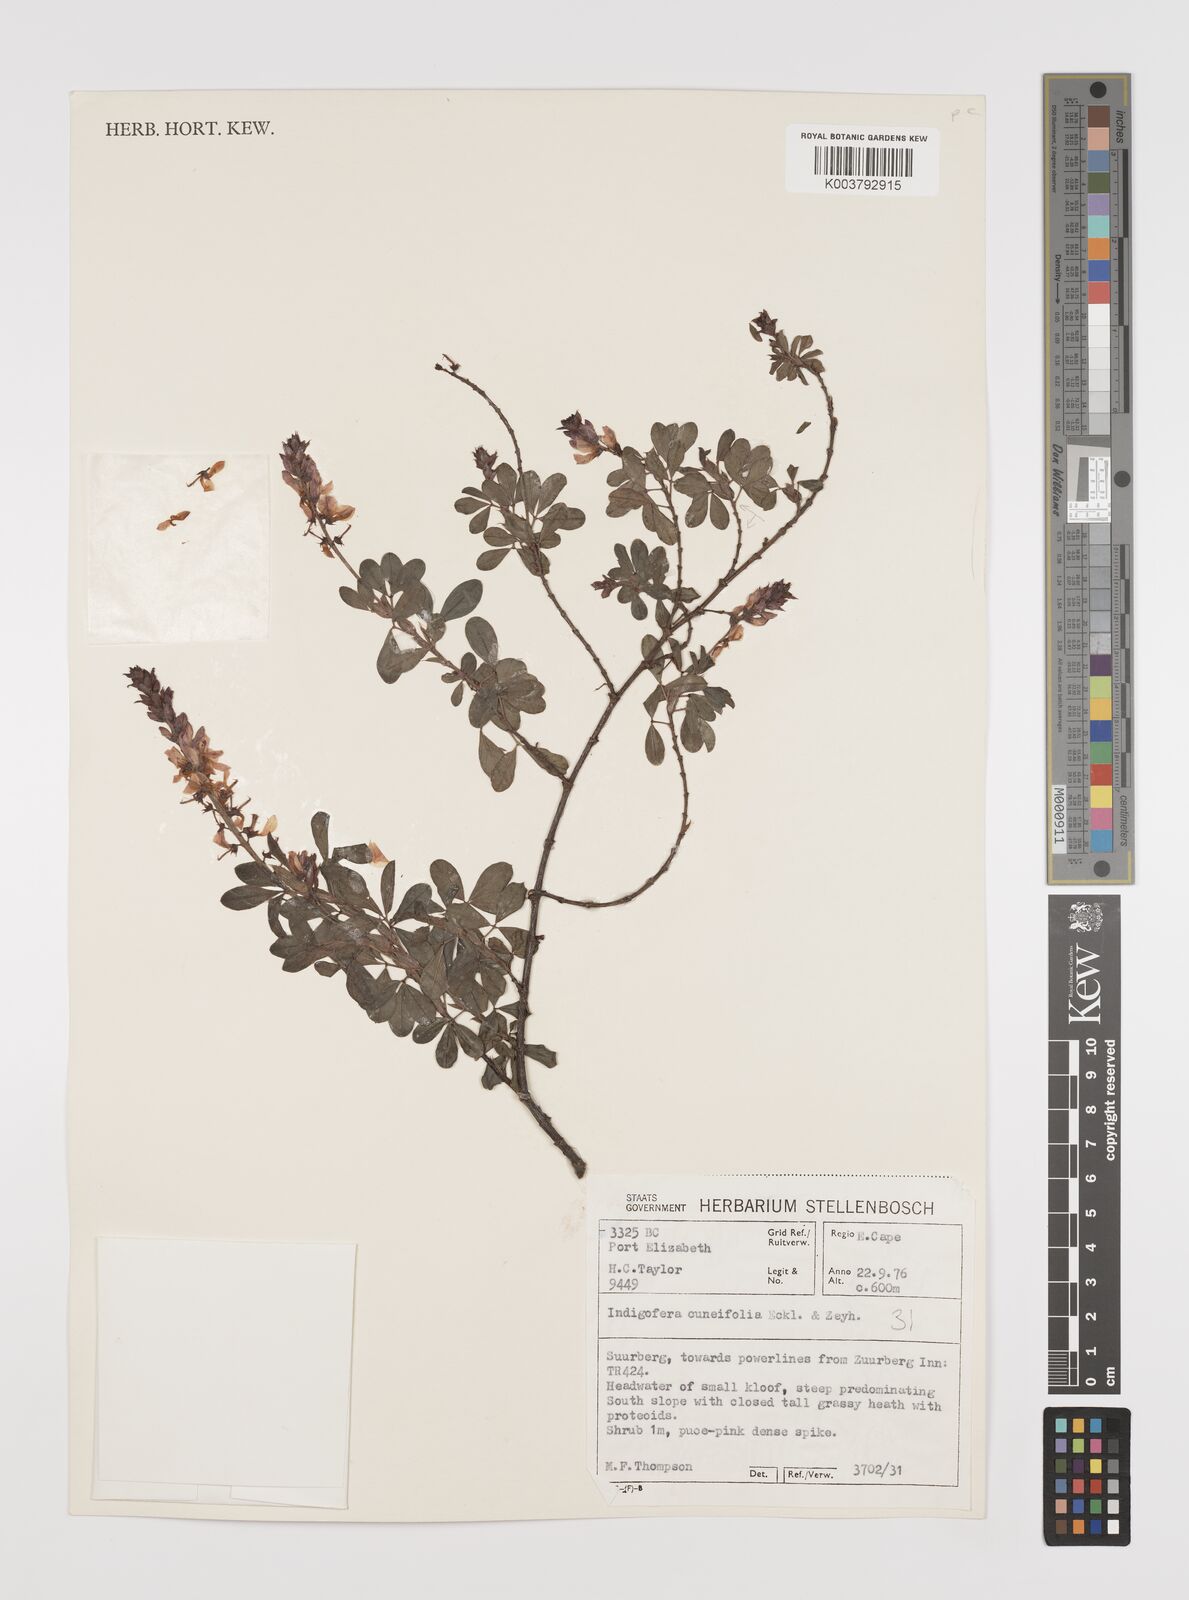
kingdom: Plantae
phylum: Tracheophyta
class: Magnoliopsida
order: Fabales
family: Fabaceae
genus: Indigofera
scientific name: Indigofera cuneifolia
